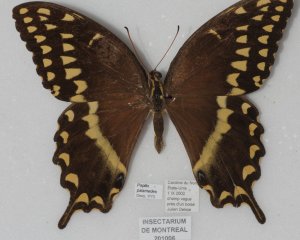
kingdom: Animalia
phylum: Arthropoda
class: Insecta
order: Lepidoptera
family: Papilionidae
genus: Pterourus
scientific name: Pterourus palamedes
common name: Palamedes Swallowtail
